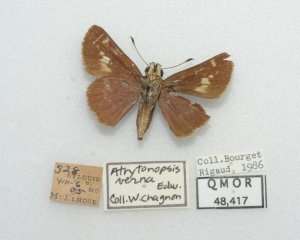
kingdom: Animalia
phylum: Arthropoda
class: Insecta
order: Lepidoptera
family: Hesperiidae
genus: Vernia
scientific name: Vernia verna
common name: Little Glassywing
